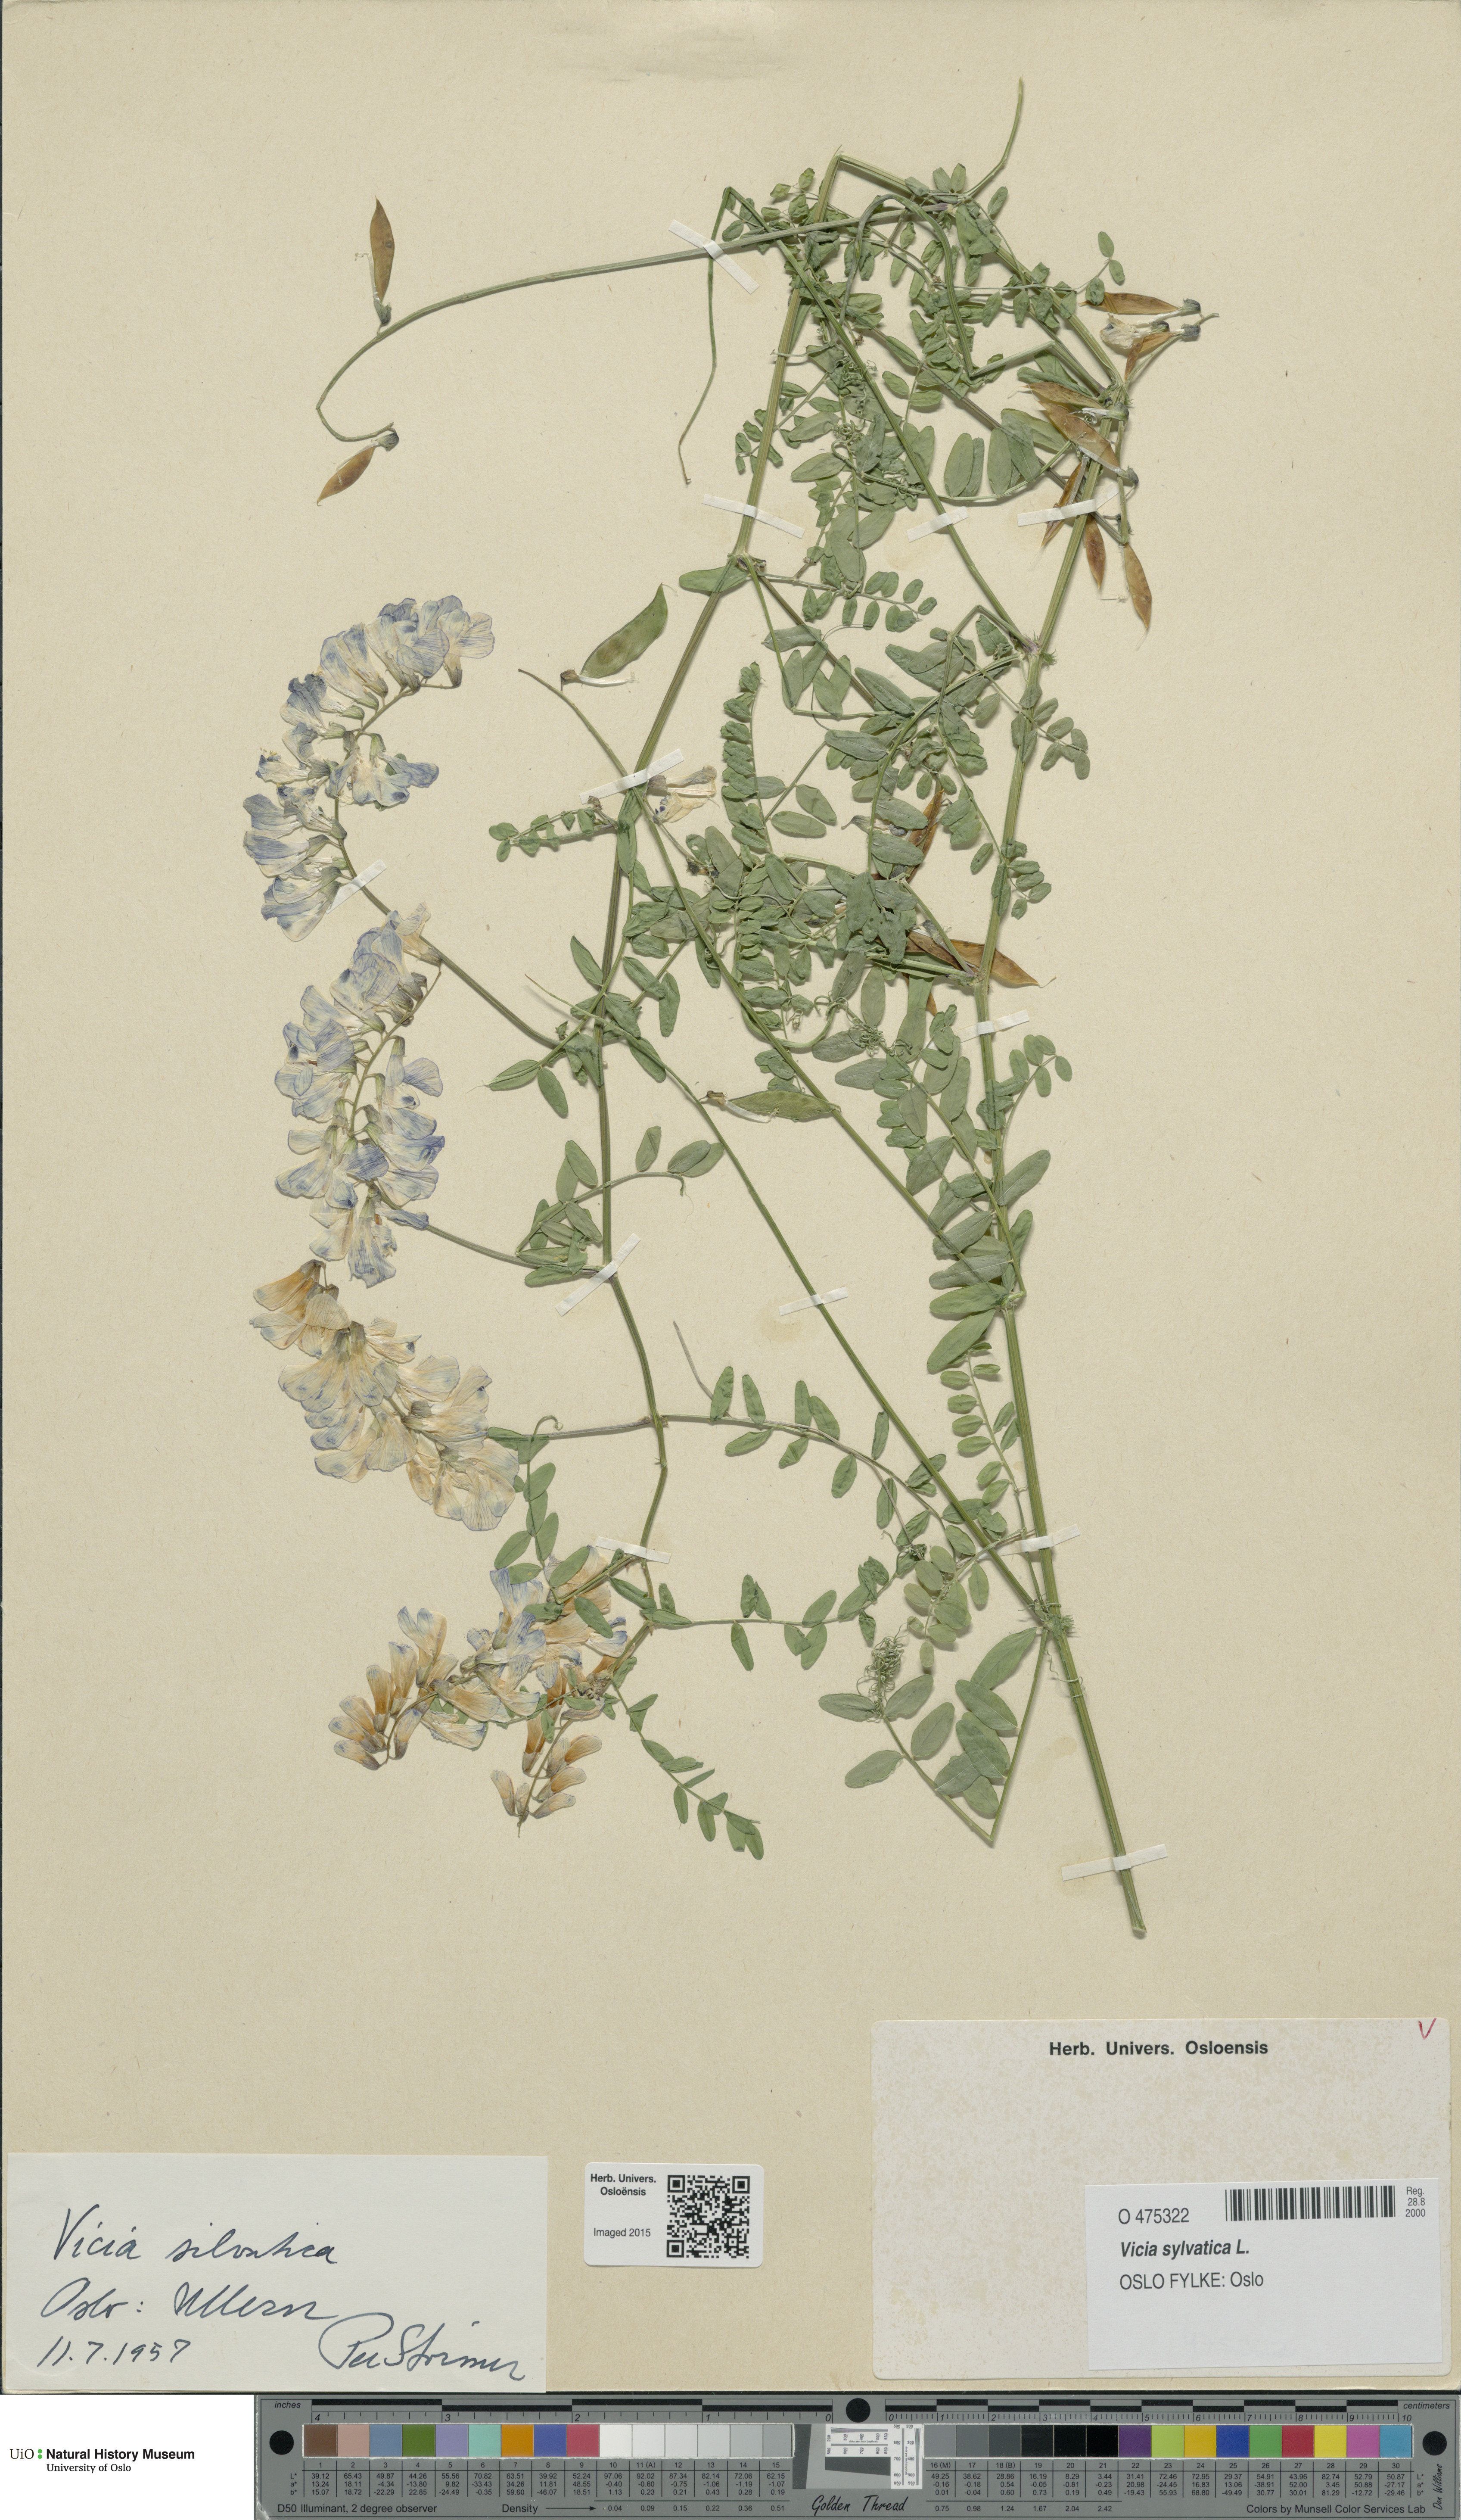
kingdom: Plantae
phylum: Tracheophyta
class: Magnoliopsida
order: Fabales
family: Fabaceae
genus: Vicia
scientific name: Vicia sylvatica
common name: Wood vetch
